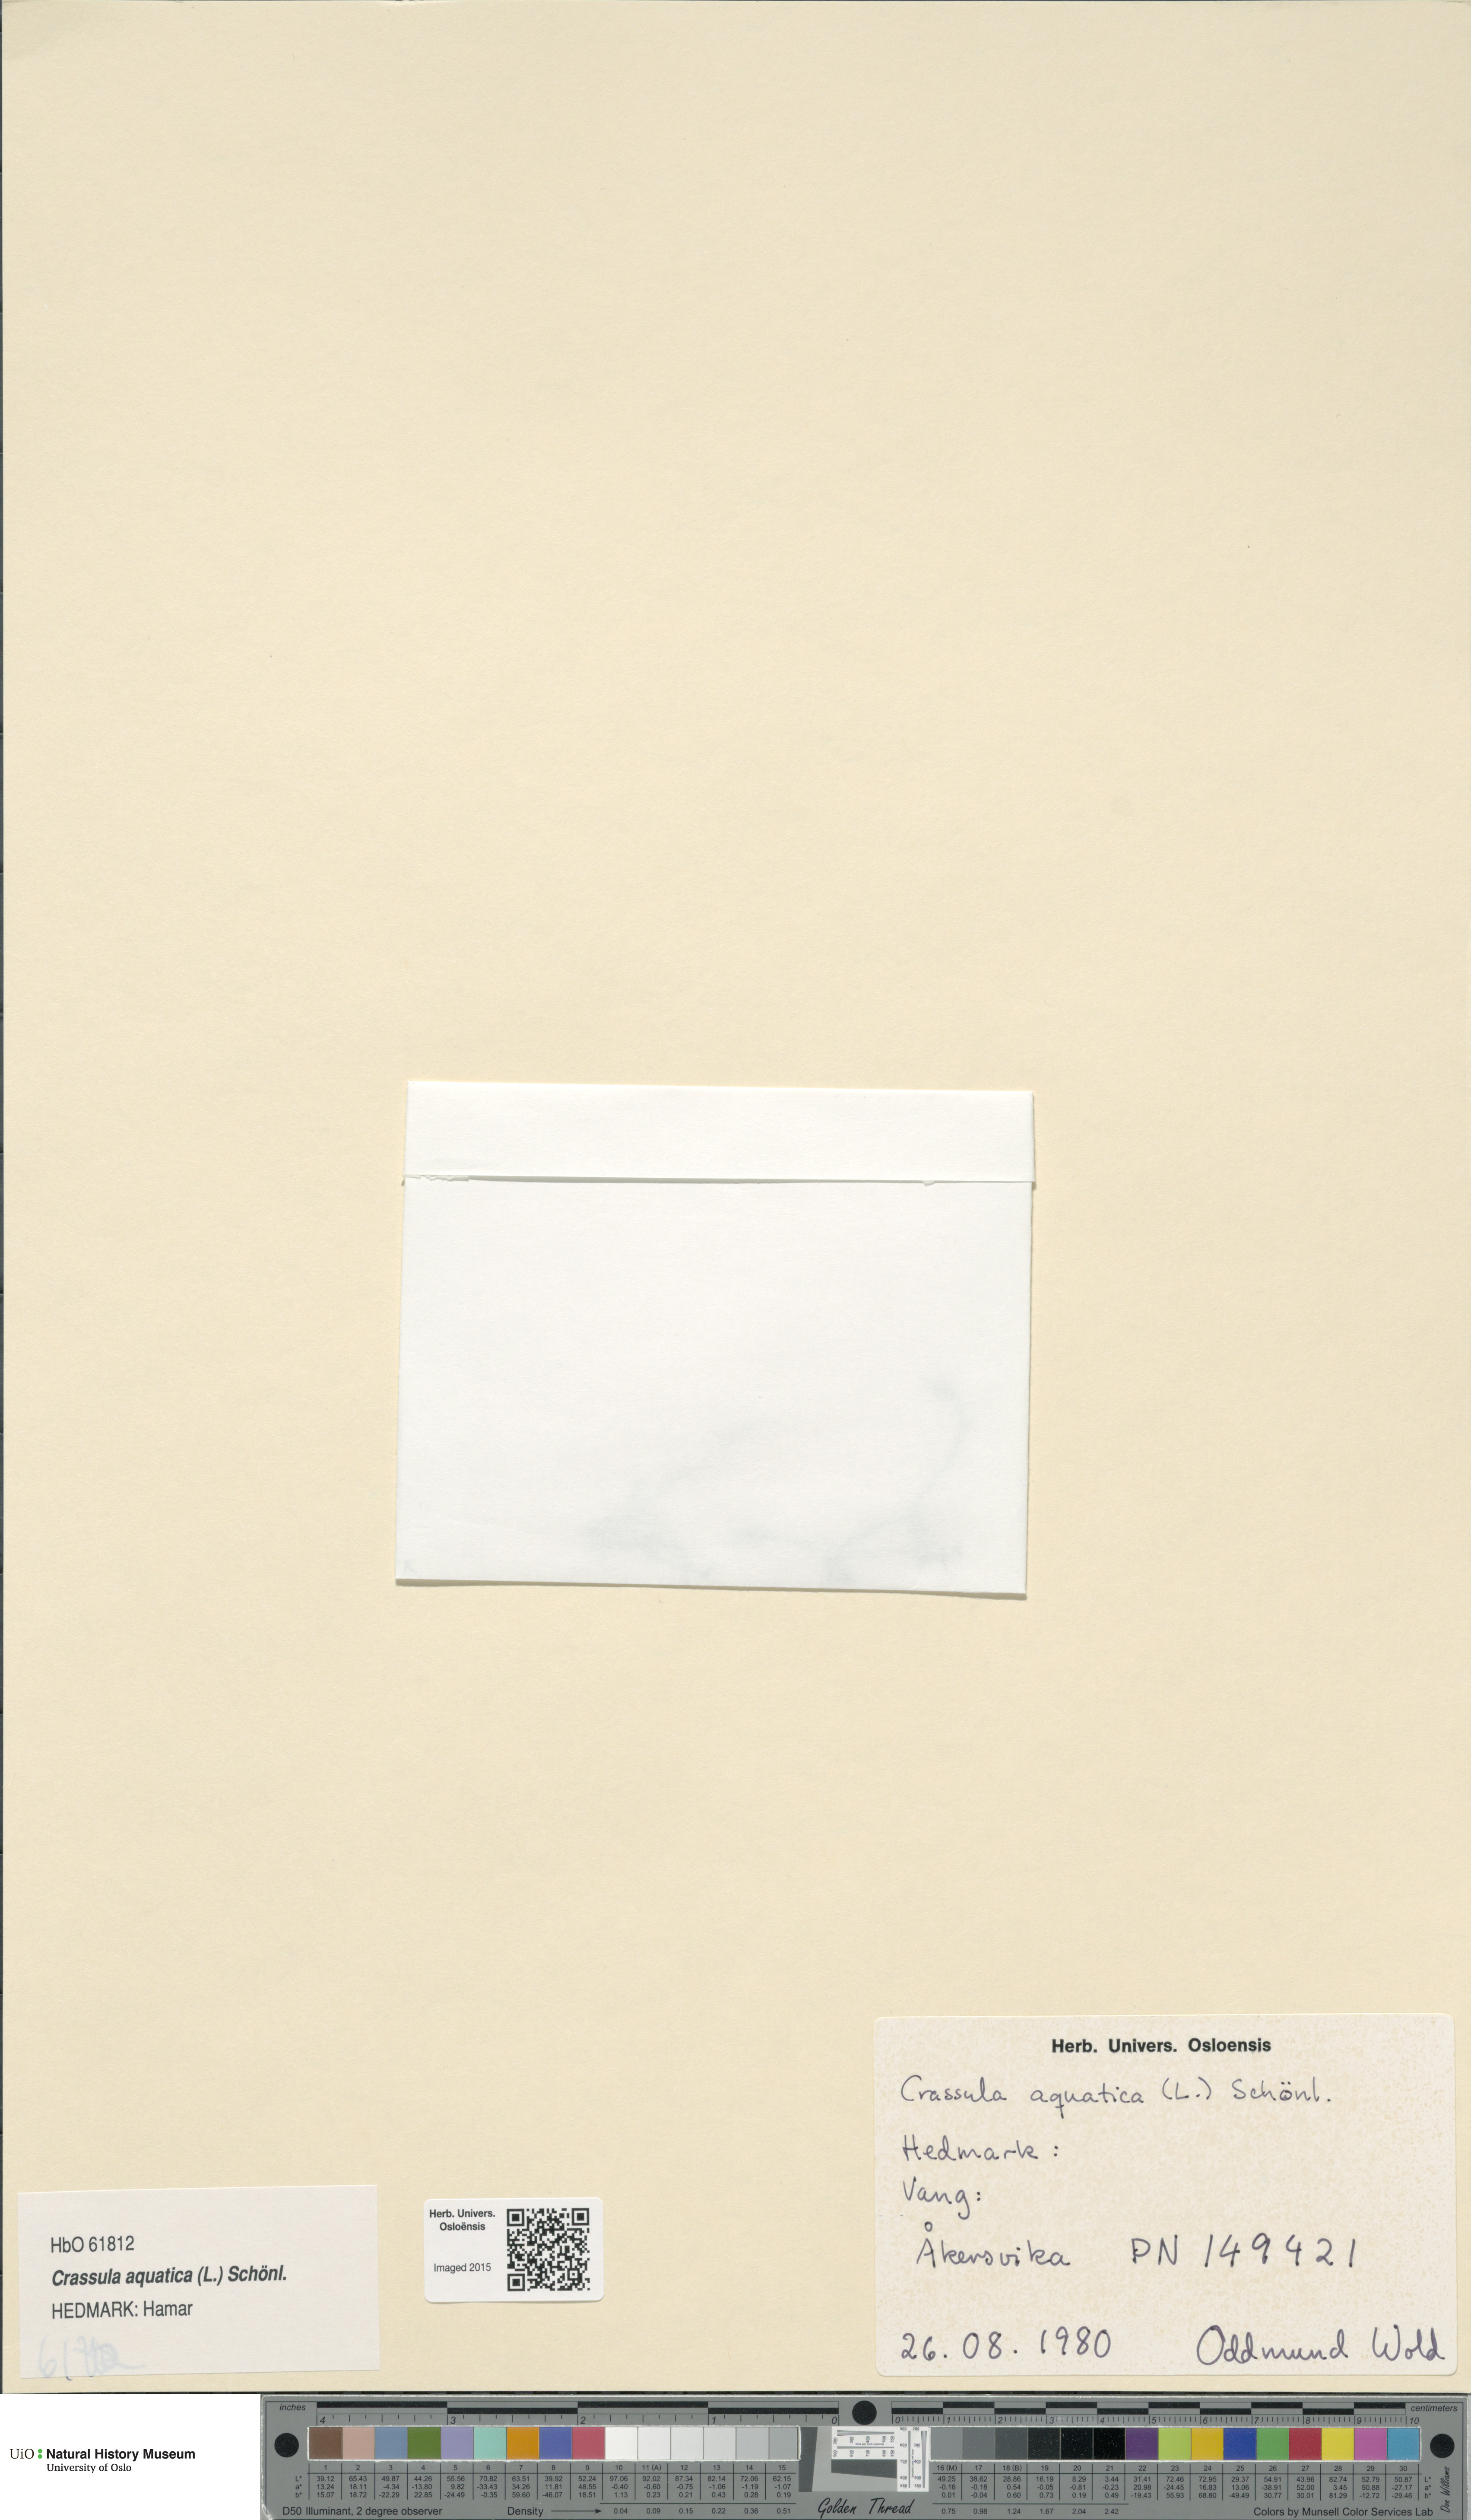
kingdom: Plantae
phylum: Tracheophyta
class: Magnoliopsida
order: Saxifragales
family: Crassulaceae
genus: Crassula
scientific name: Crassula aquatica
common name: Pigmyweed
